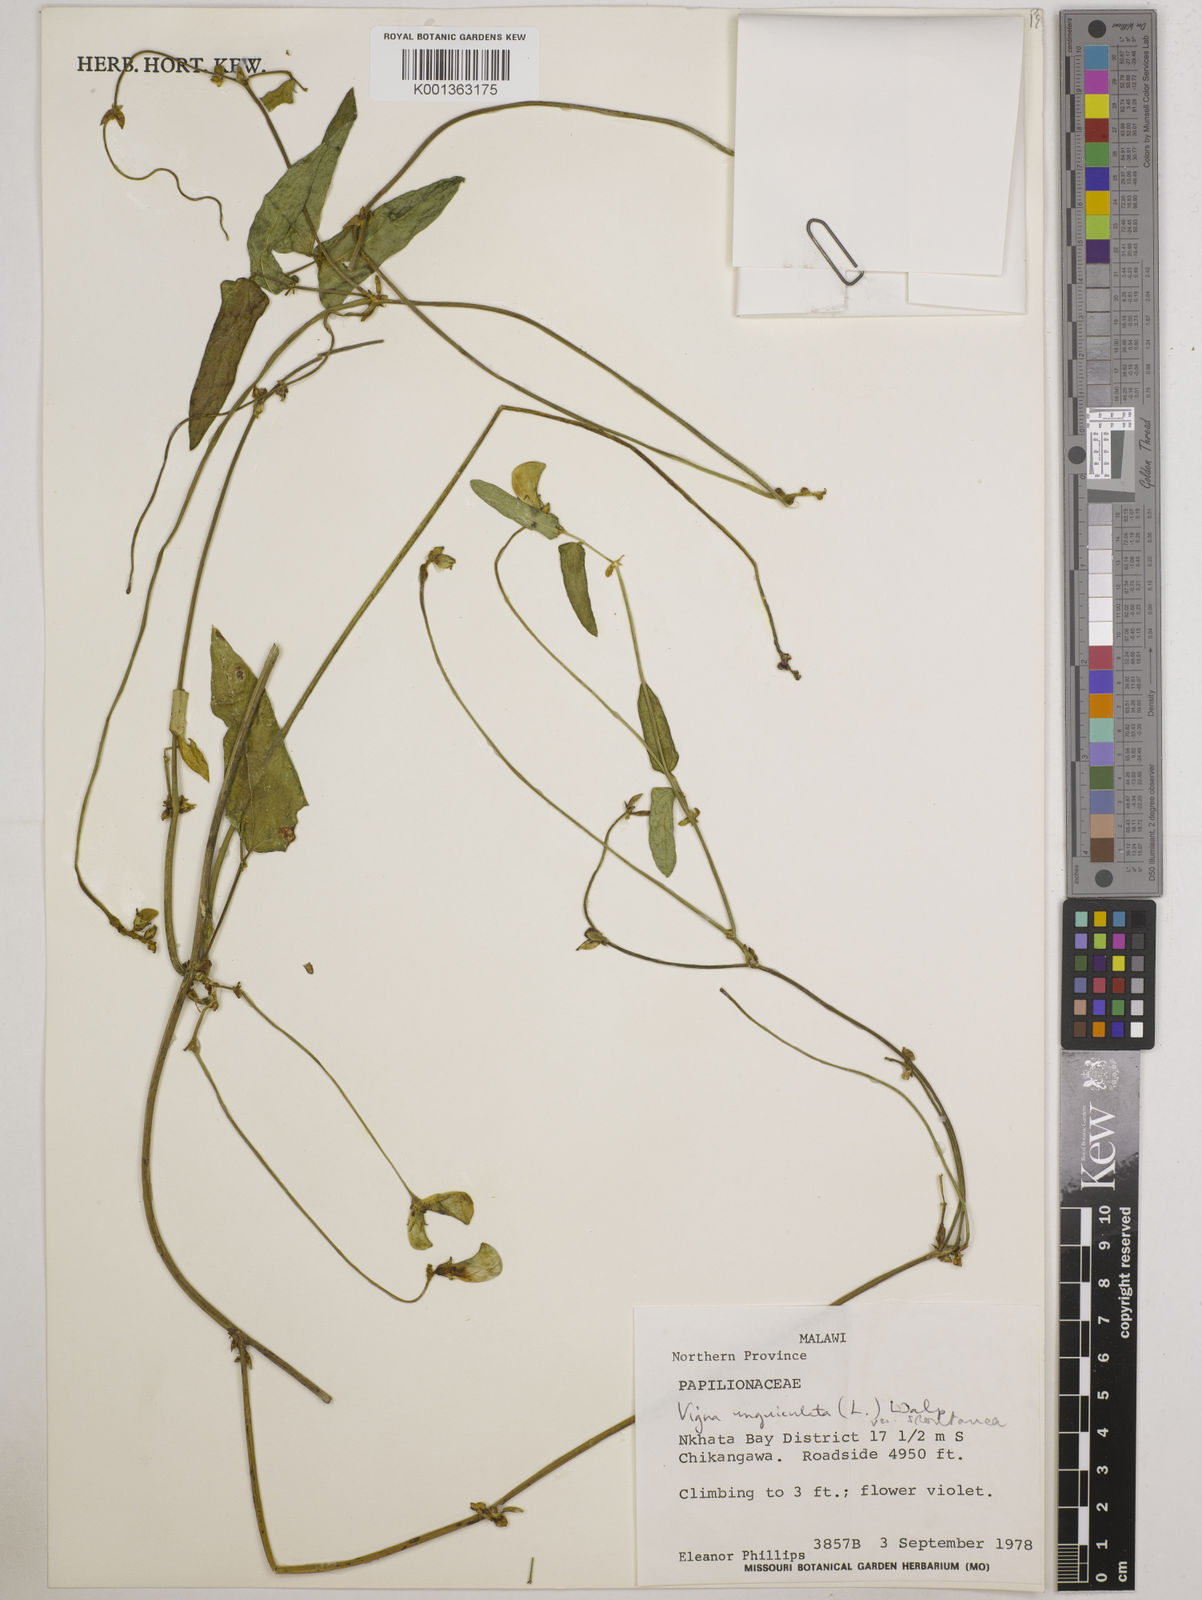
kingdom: Plantae
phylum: Tracheophyta
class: Magnoliopsida
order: Fabales
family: Fabaceae
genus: Vigna
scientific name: Vigna unguiculata
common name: Cowpea
